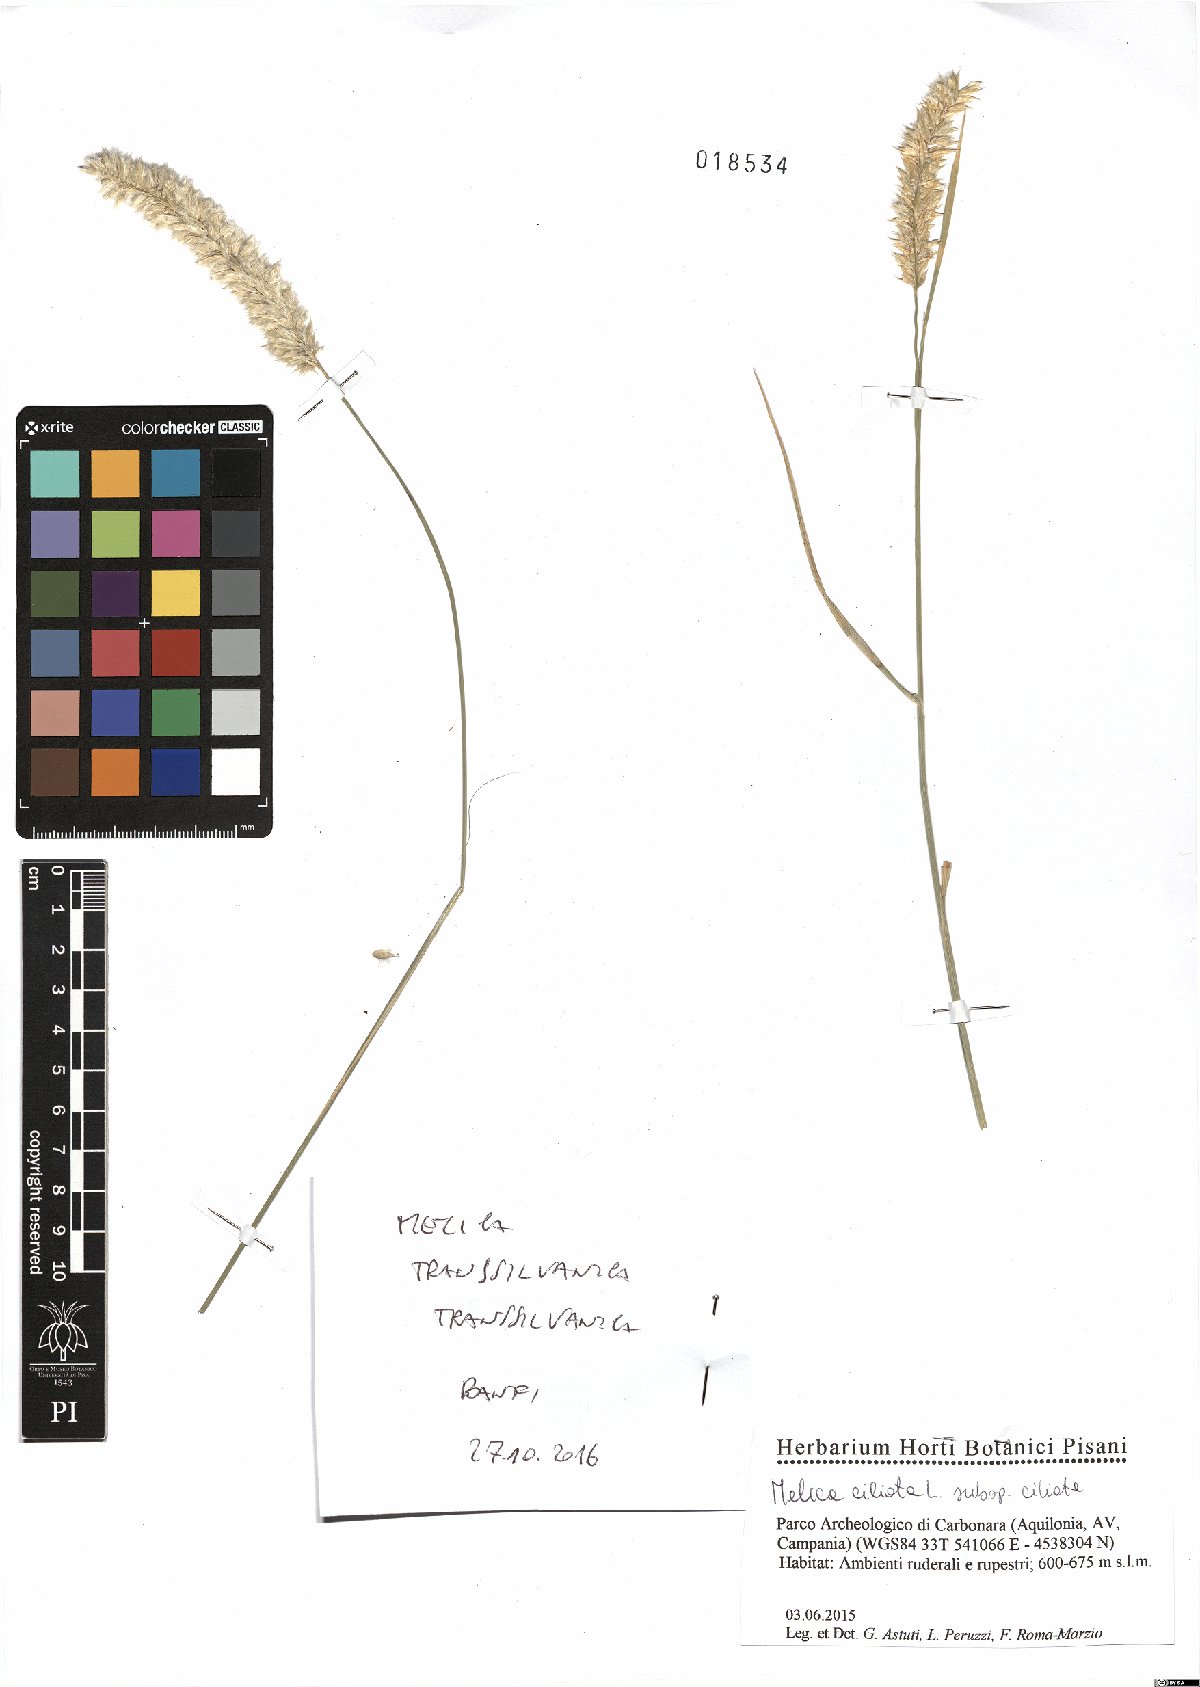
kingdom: Plantae
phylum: Tracheophyta
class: Liliopsida
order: Poales
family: Poaceae
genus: Melica
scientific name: Melica transsilvanica
